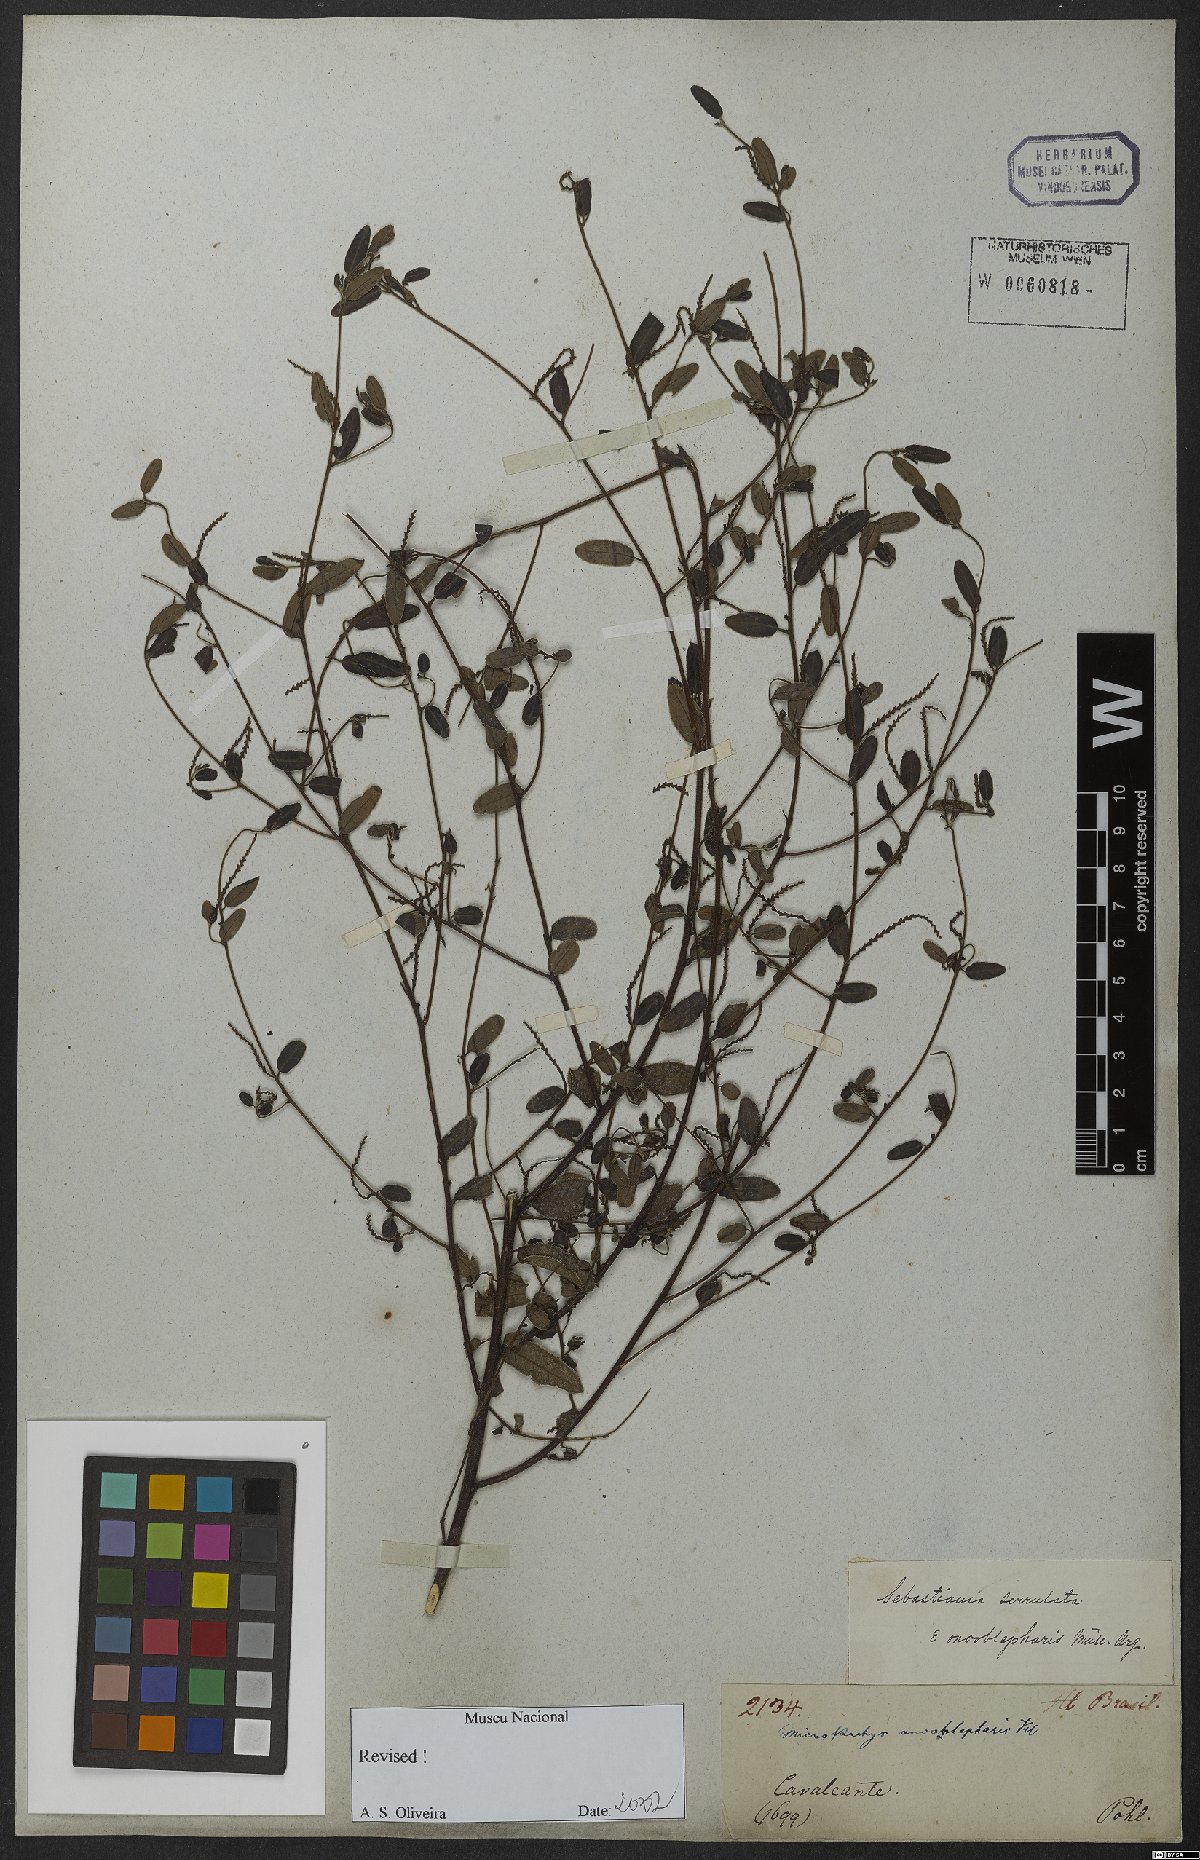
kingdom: Plantae
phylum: Tracheophyta
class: Magnoliopsida
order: Malpighiales
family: Euphorbiaceae
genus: Microstachys
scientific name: Microstachys serrulata
